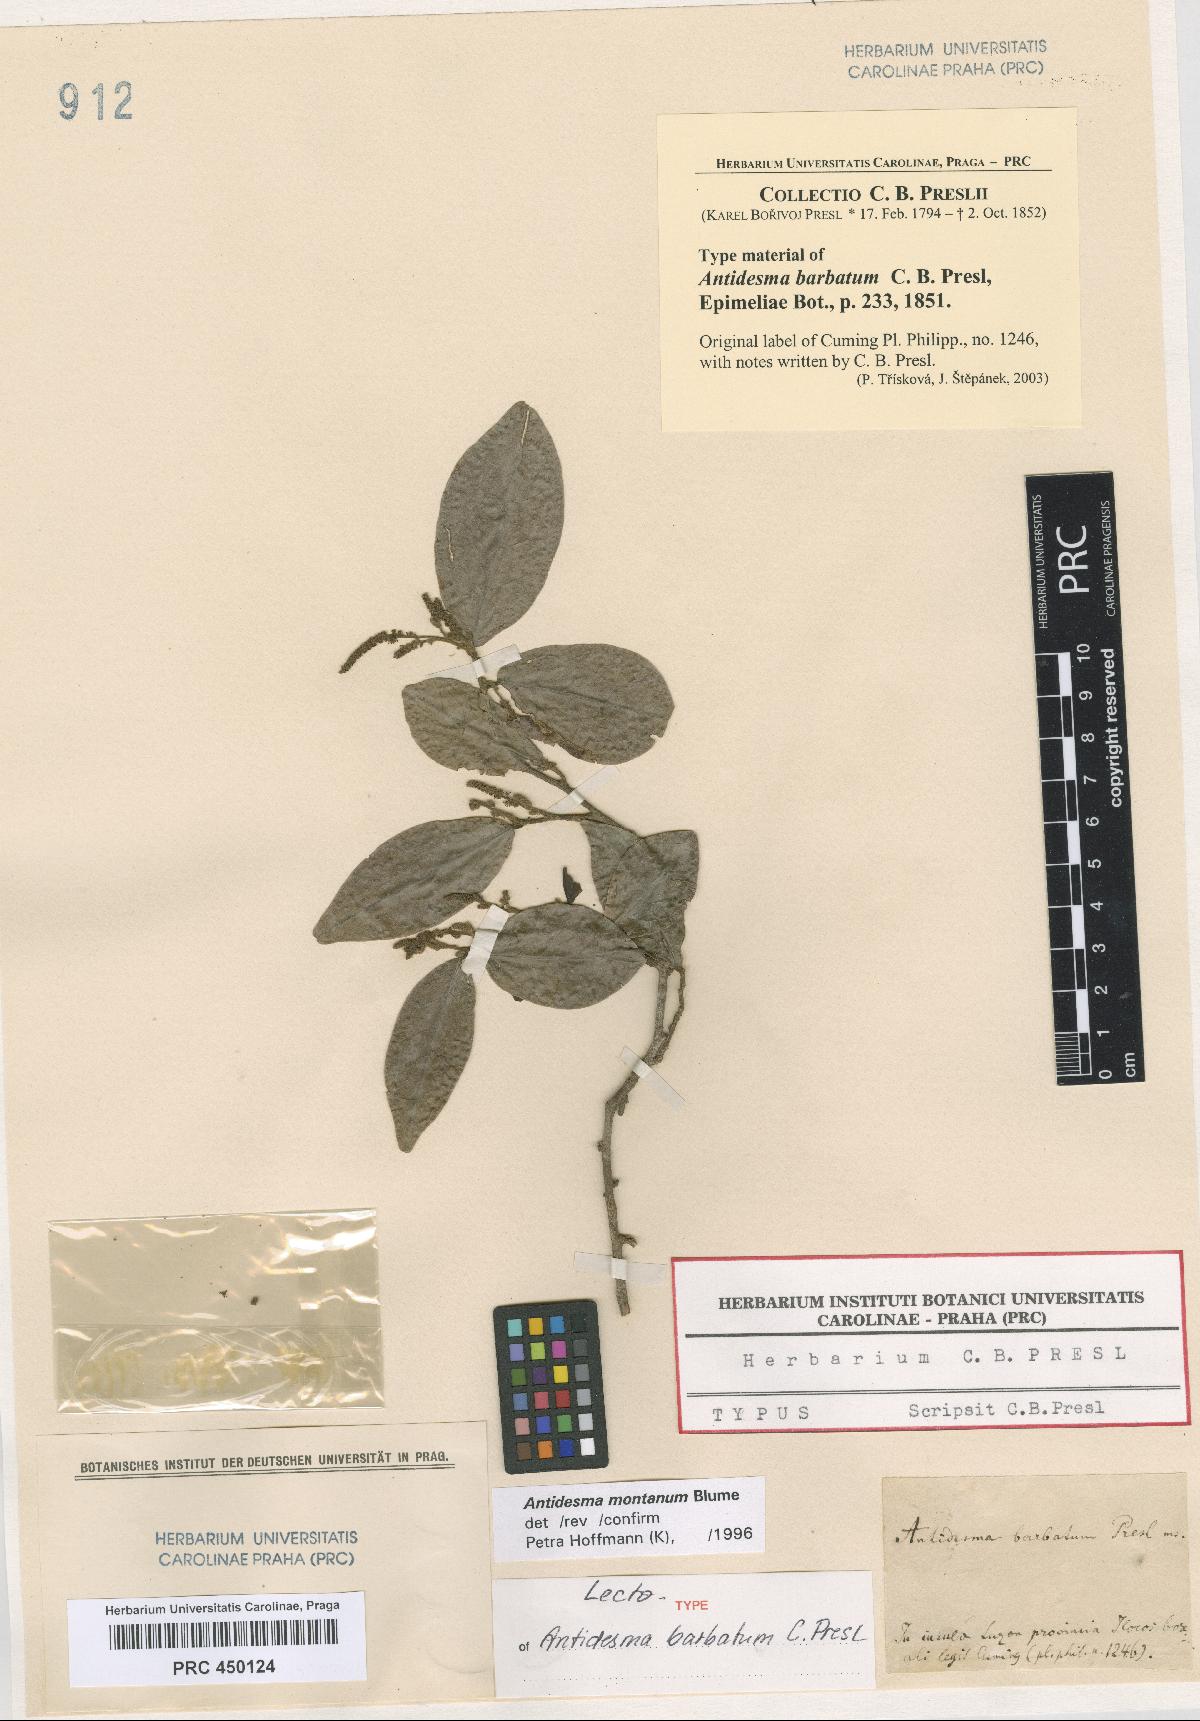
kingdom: Plantae
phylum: Tracheophyta
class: Magnoliopsida
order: Malpighiales
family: Phyllanthaceae
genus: Antidesma
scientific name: Antidesma montanum
